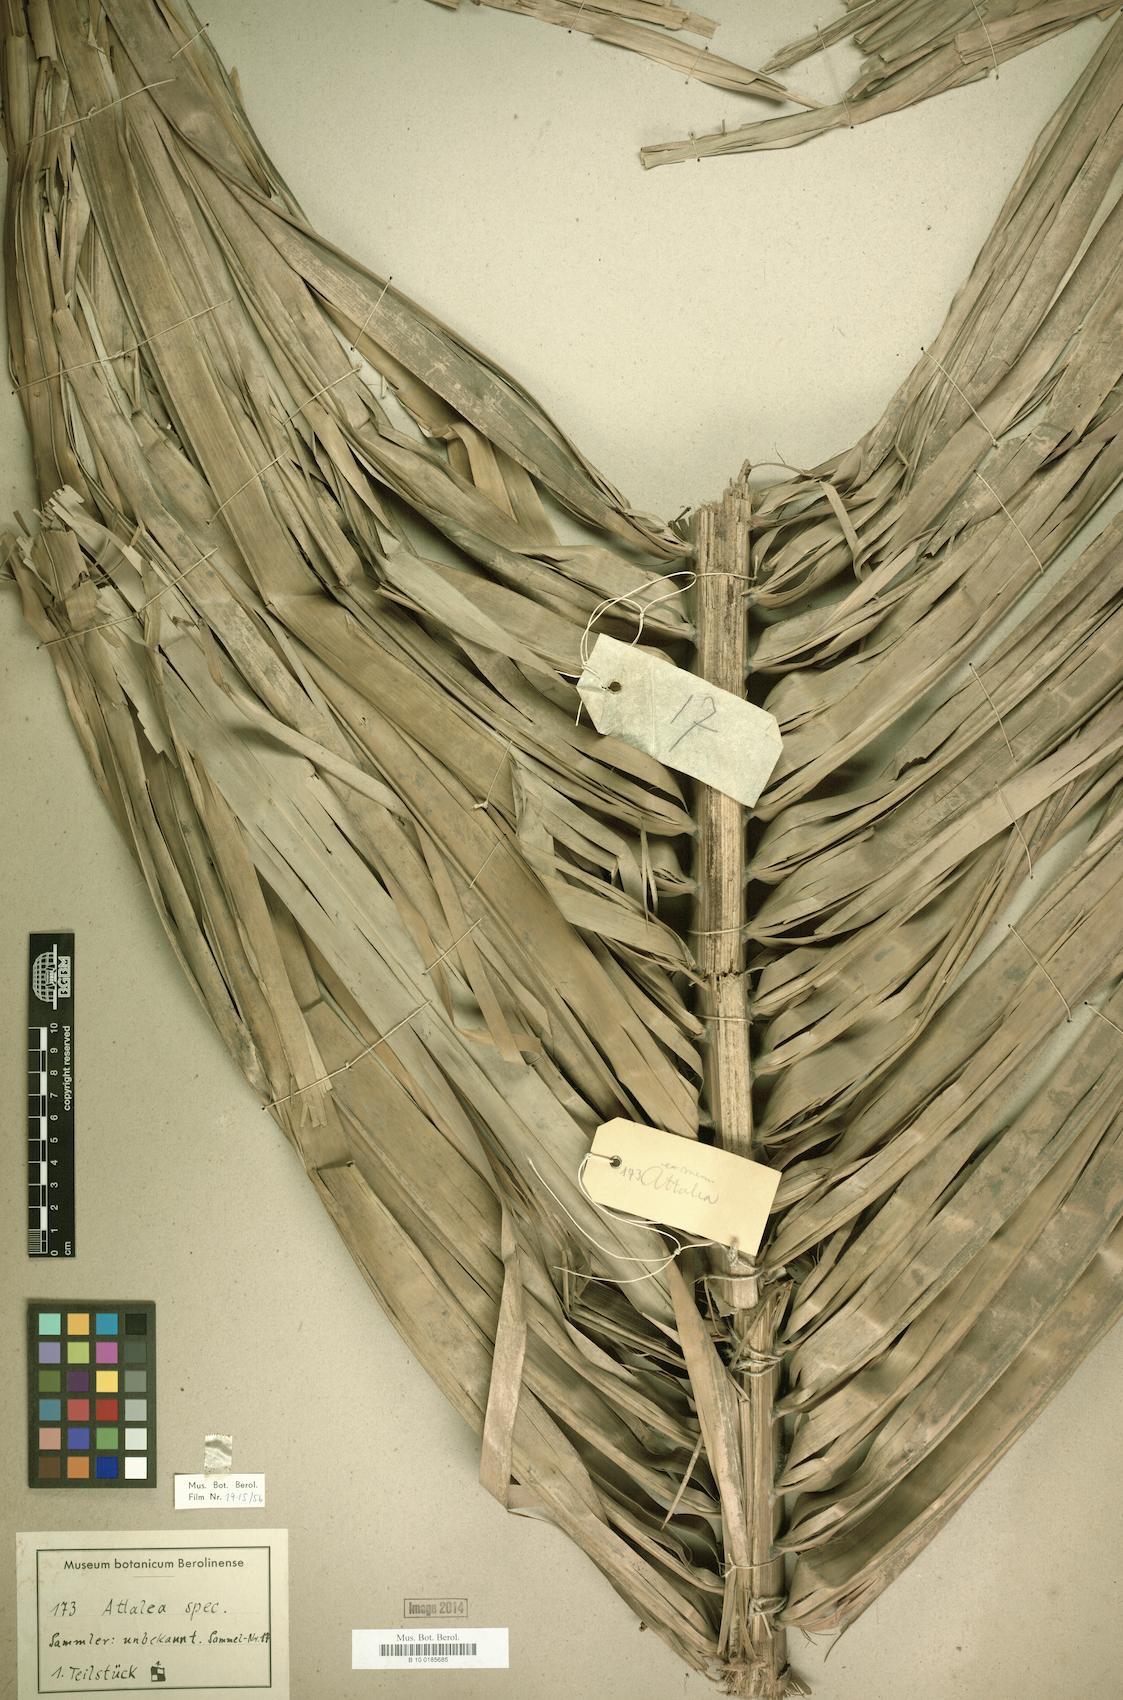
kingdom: Plantae
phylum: Tracheophyta
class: Liliopsida
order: Arecales
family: Arecaceae
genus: Attalea
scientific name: Attalea
